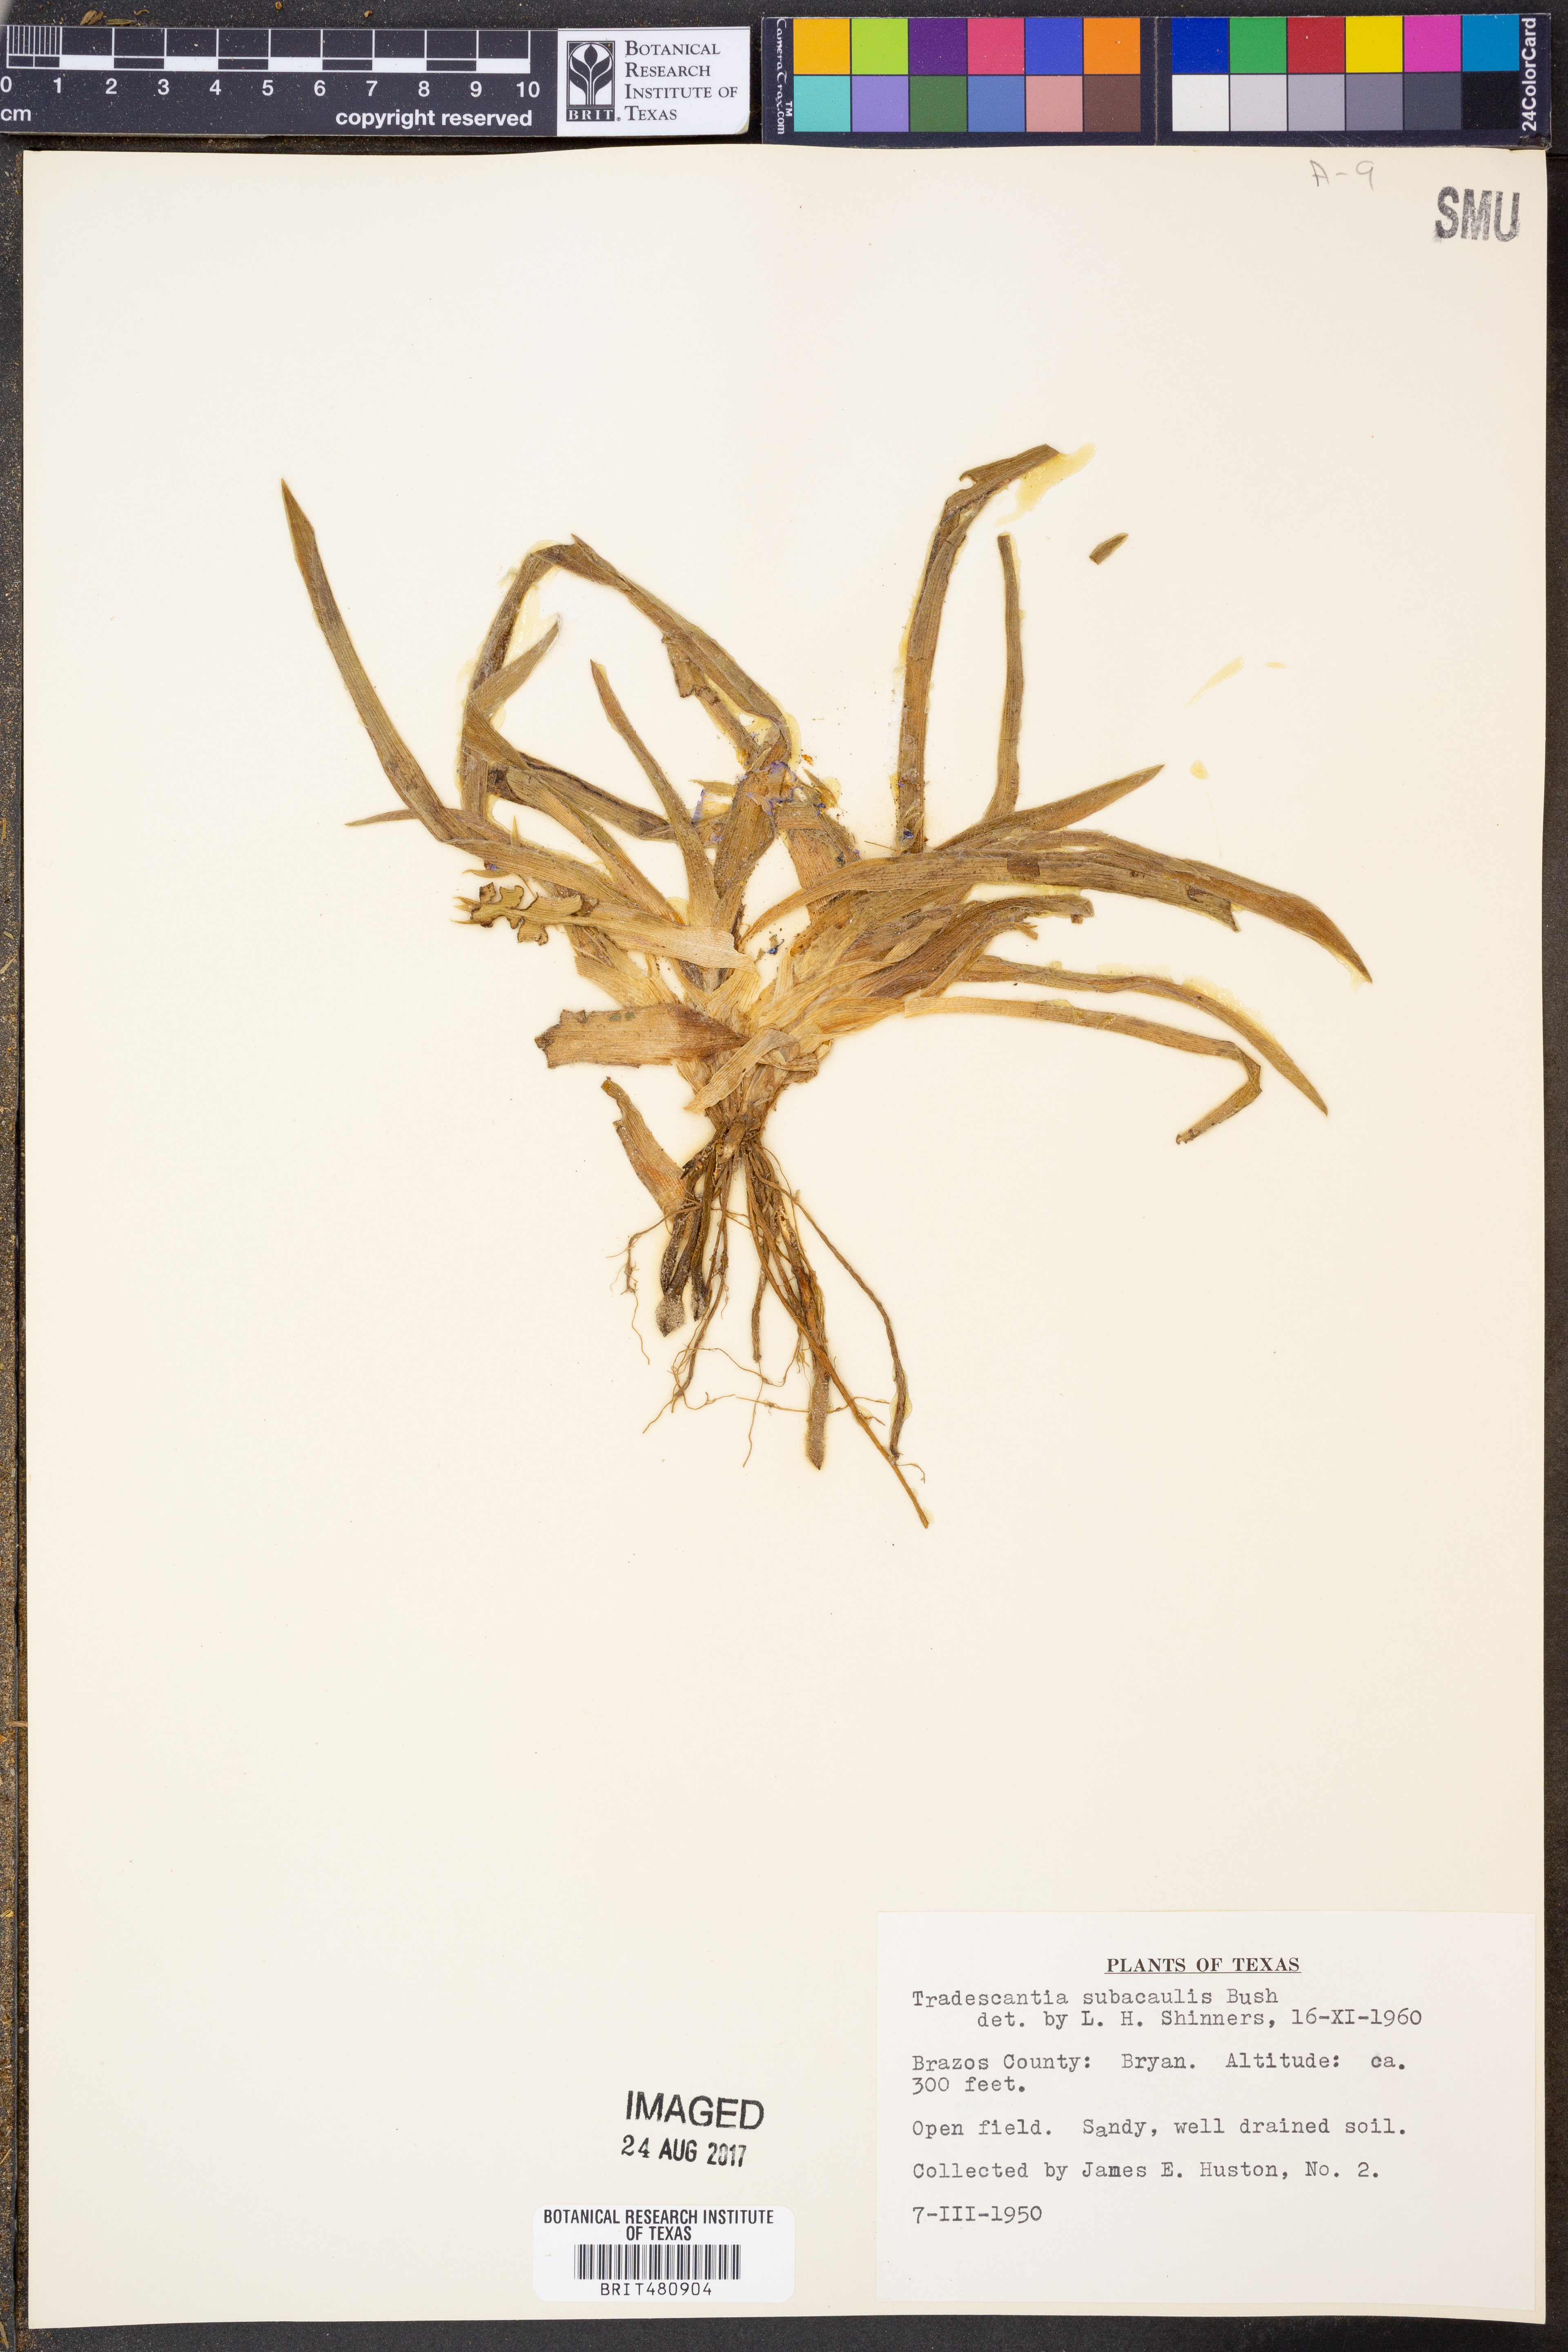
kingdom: Plantae
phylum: Tracheophyta
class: Liliopsida
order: Commelinales
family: Commelinaceae
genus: Tradescantia
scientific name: Tradescantia subacaulis
